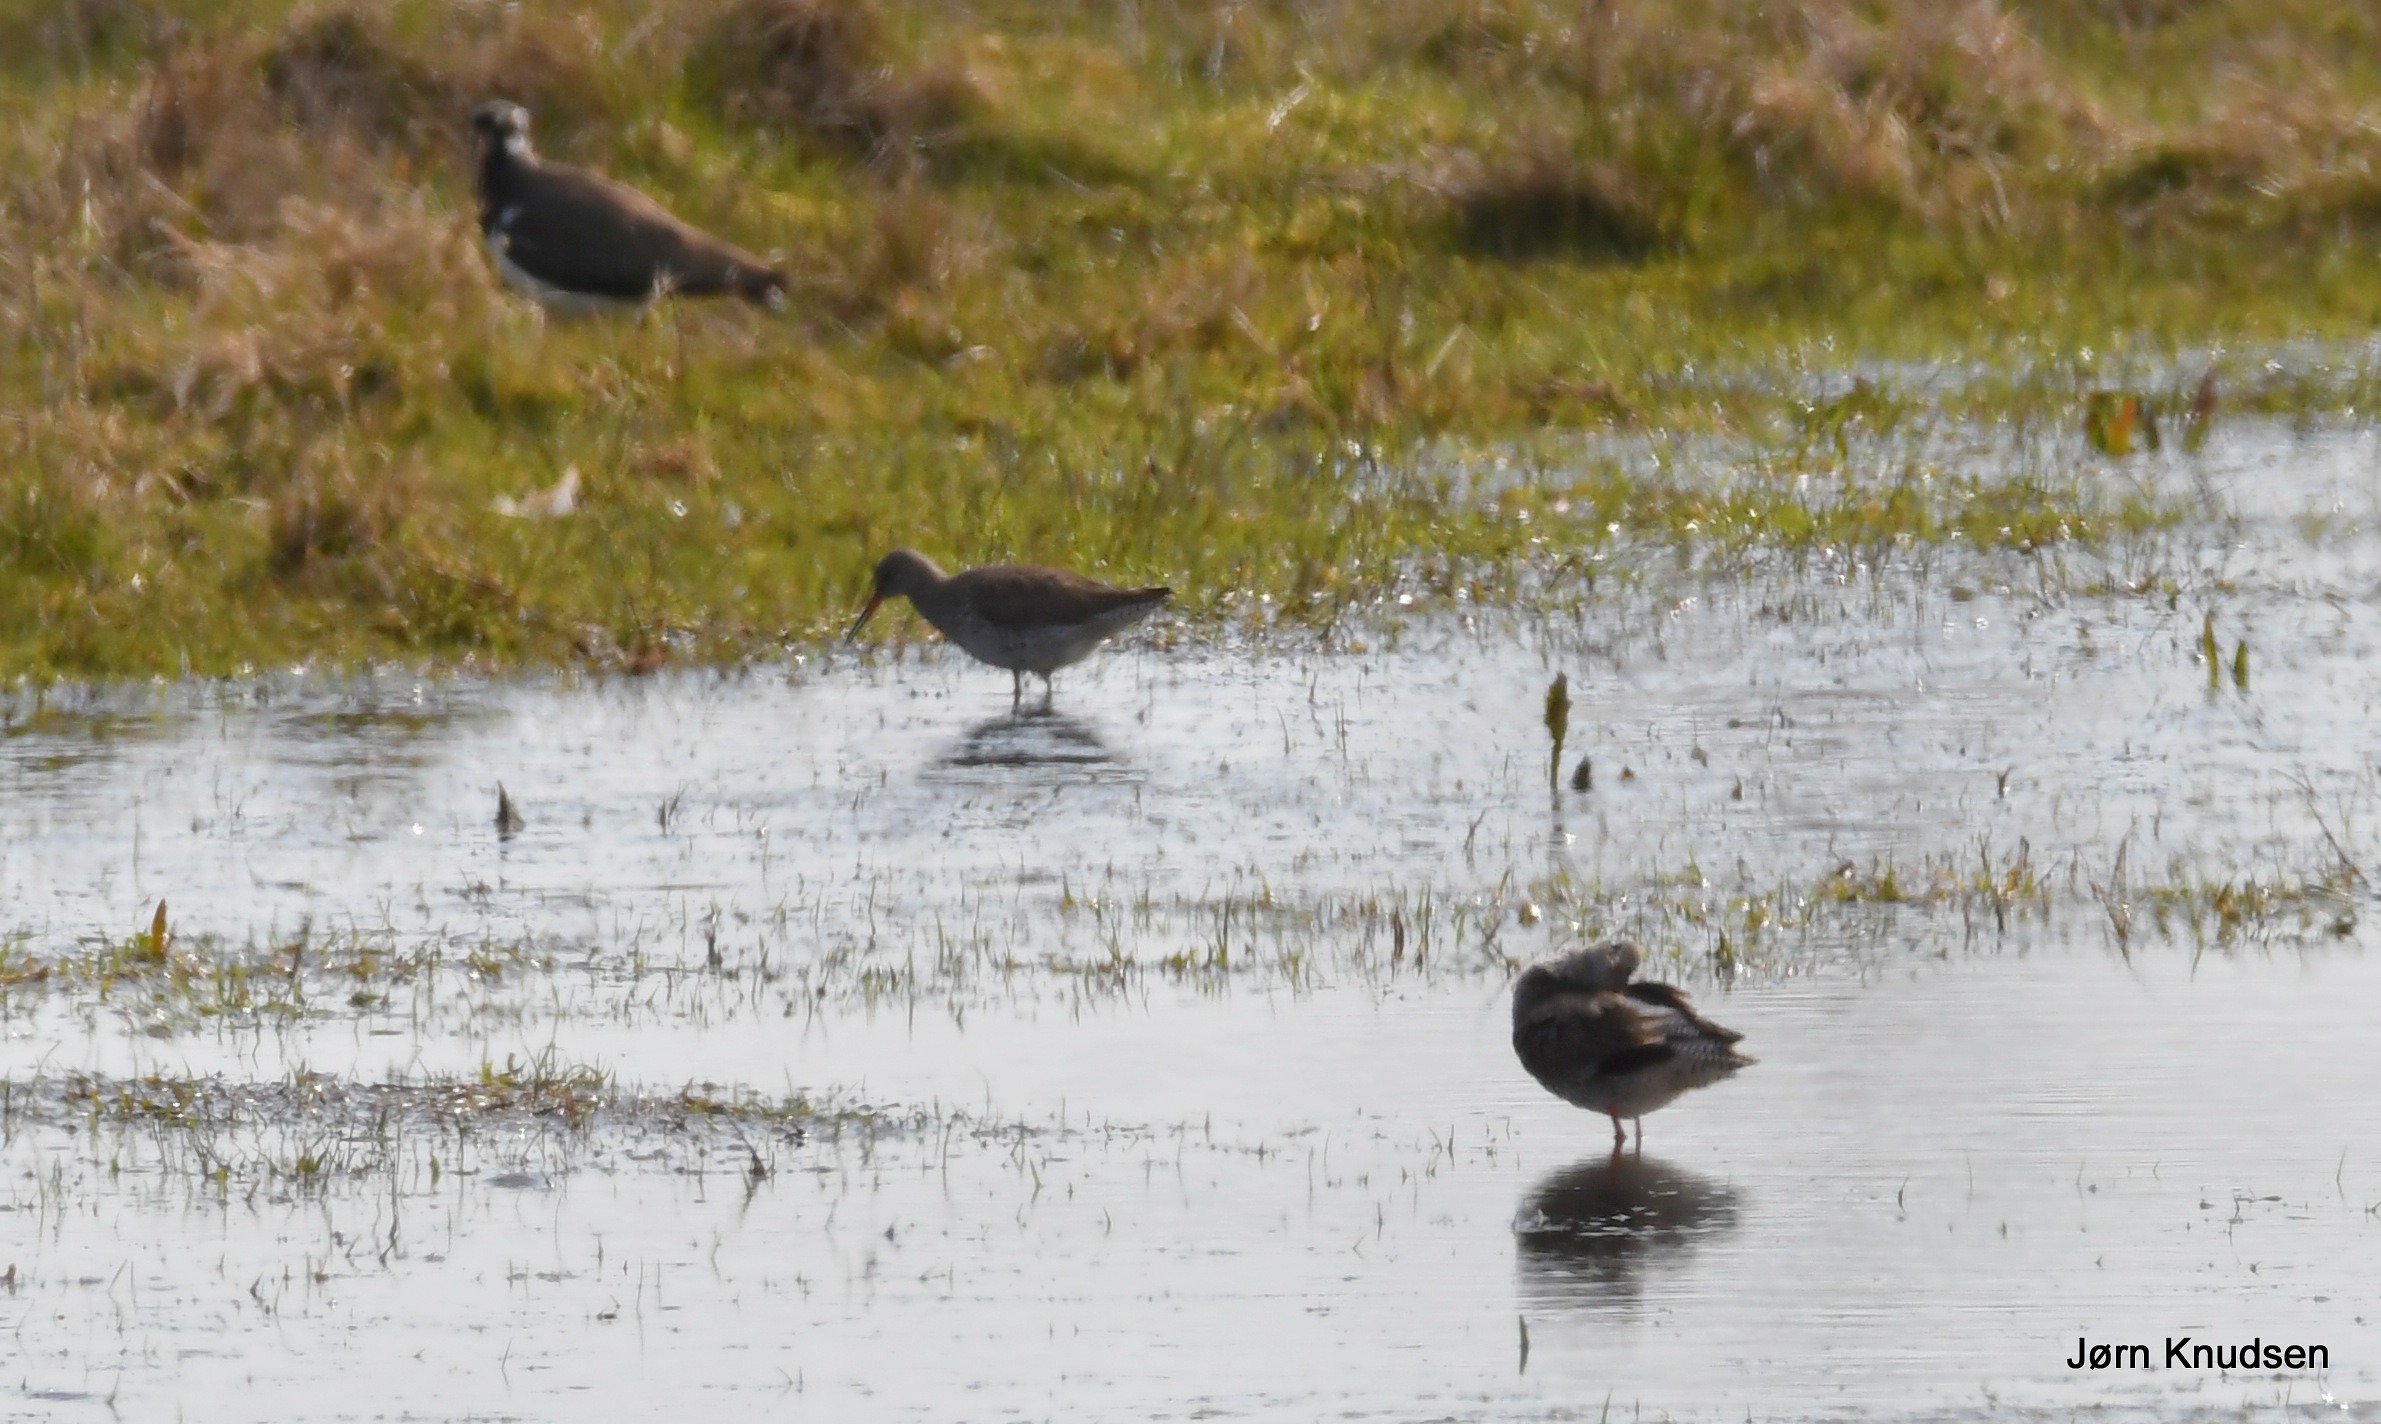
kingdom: Animalia
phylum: Chordata
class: Aves
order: Charadriiformes
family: Scolopacidae
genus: Tringa
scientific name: Tringa totanus
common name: Rødben
